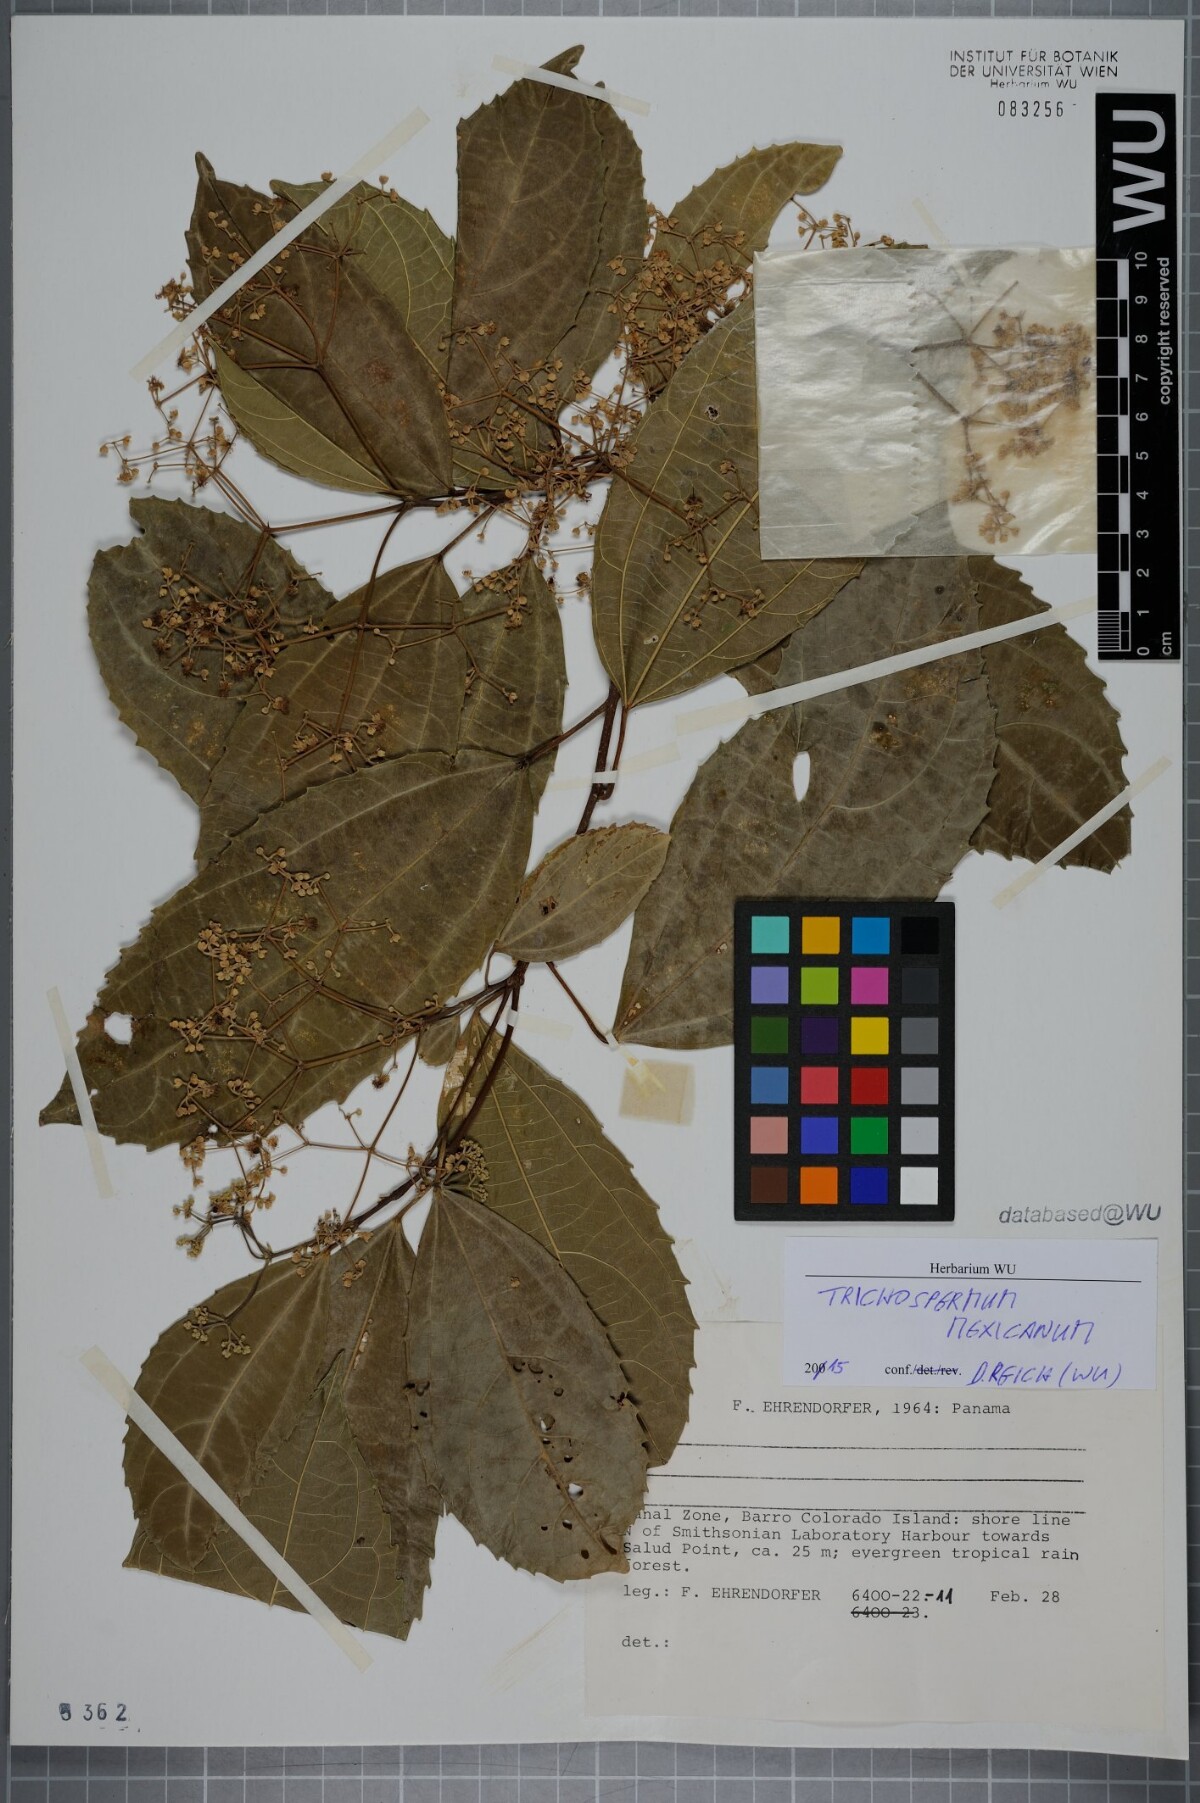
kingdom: Plantae
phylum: Tracheophyta
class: Magnoliopsida
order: Malvales
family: Malvaceae
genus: Trichospermum
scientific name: Trichospermum mexicanum
